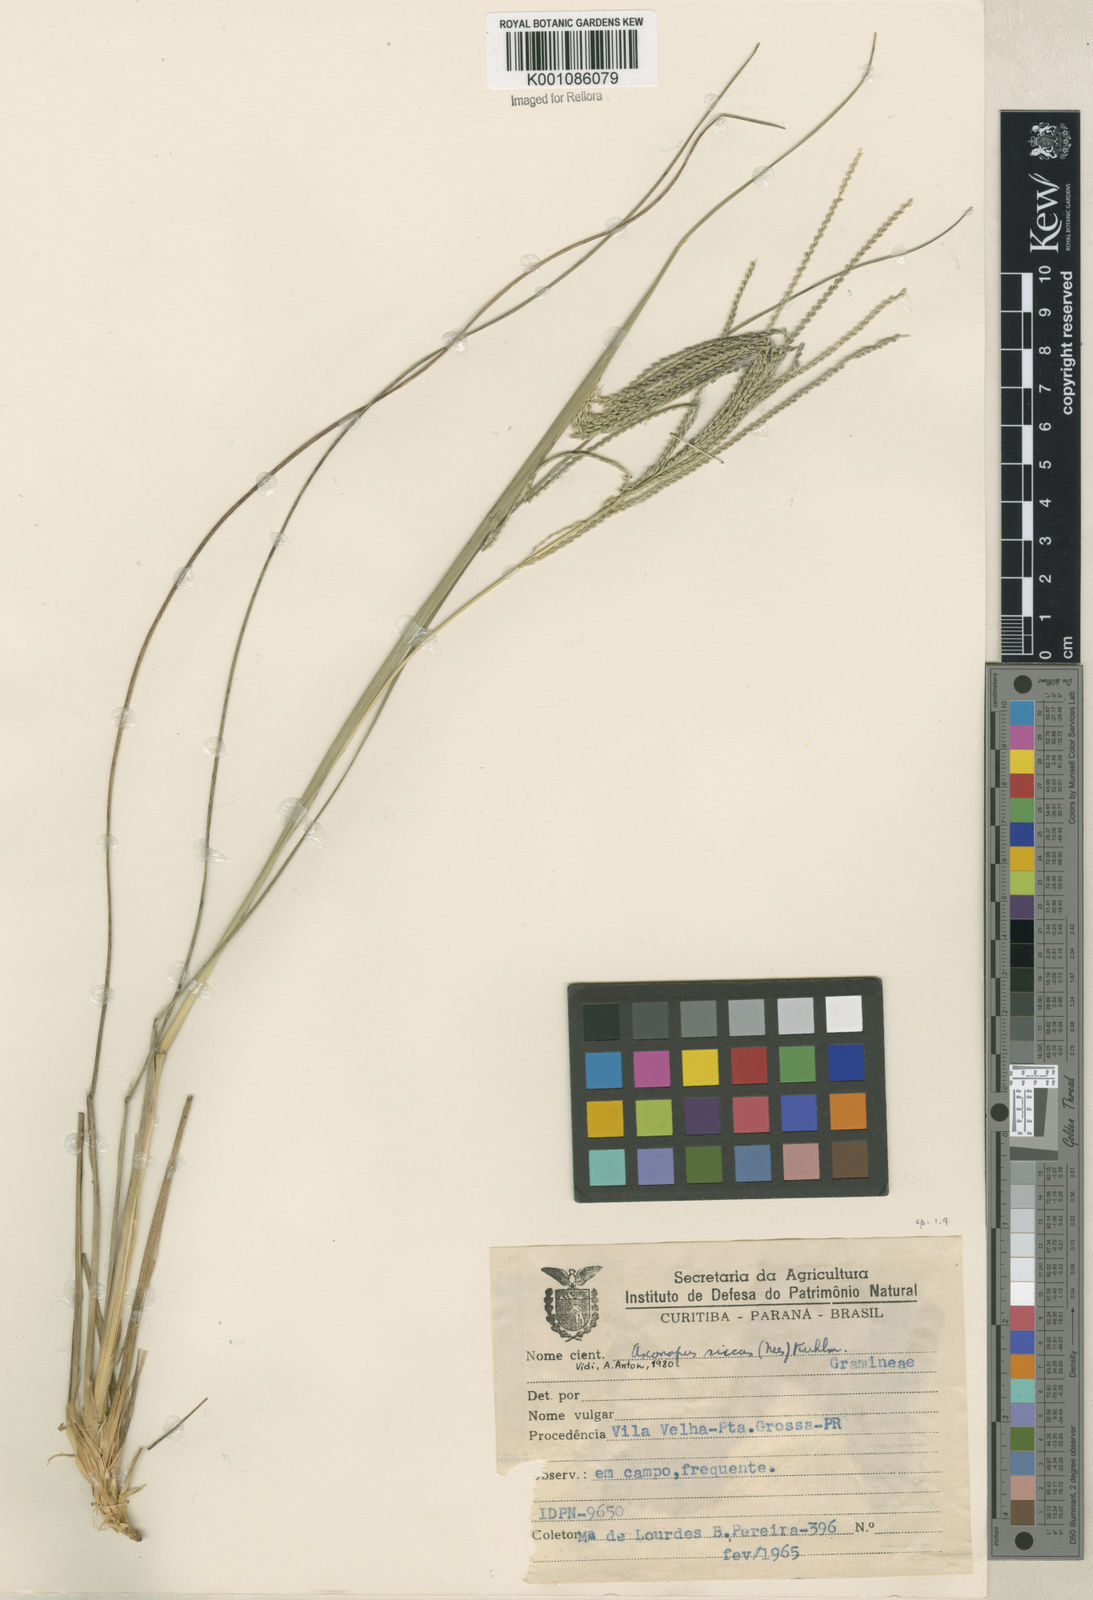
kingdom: Plantae
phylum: Tracheophyta
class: Liliopsida
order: Poales
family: Poaceae
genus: Axonopus
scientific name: Axonopus siccus
